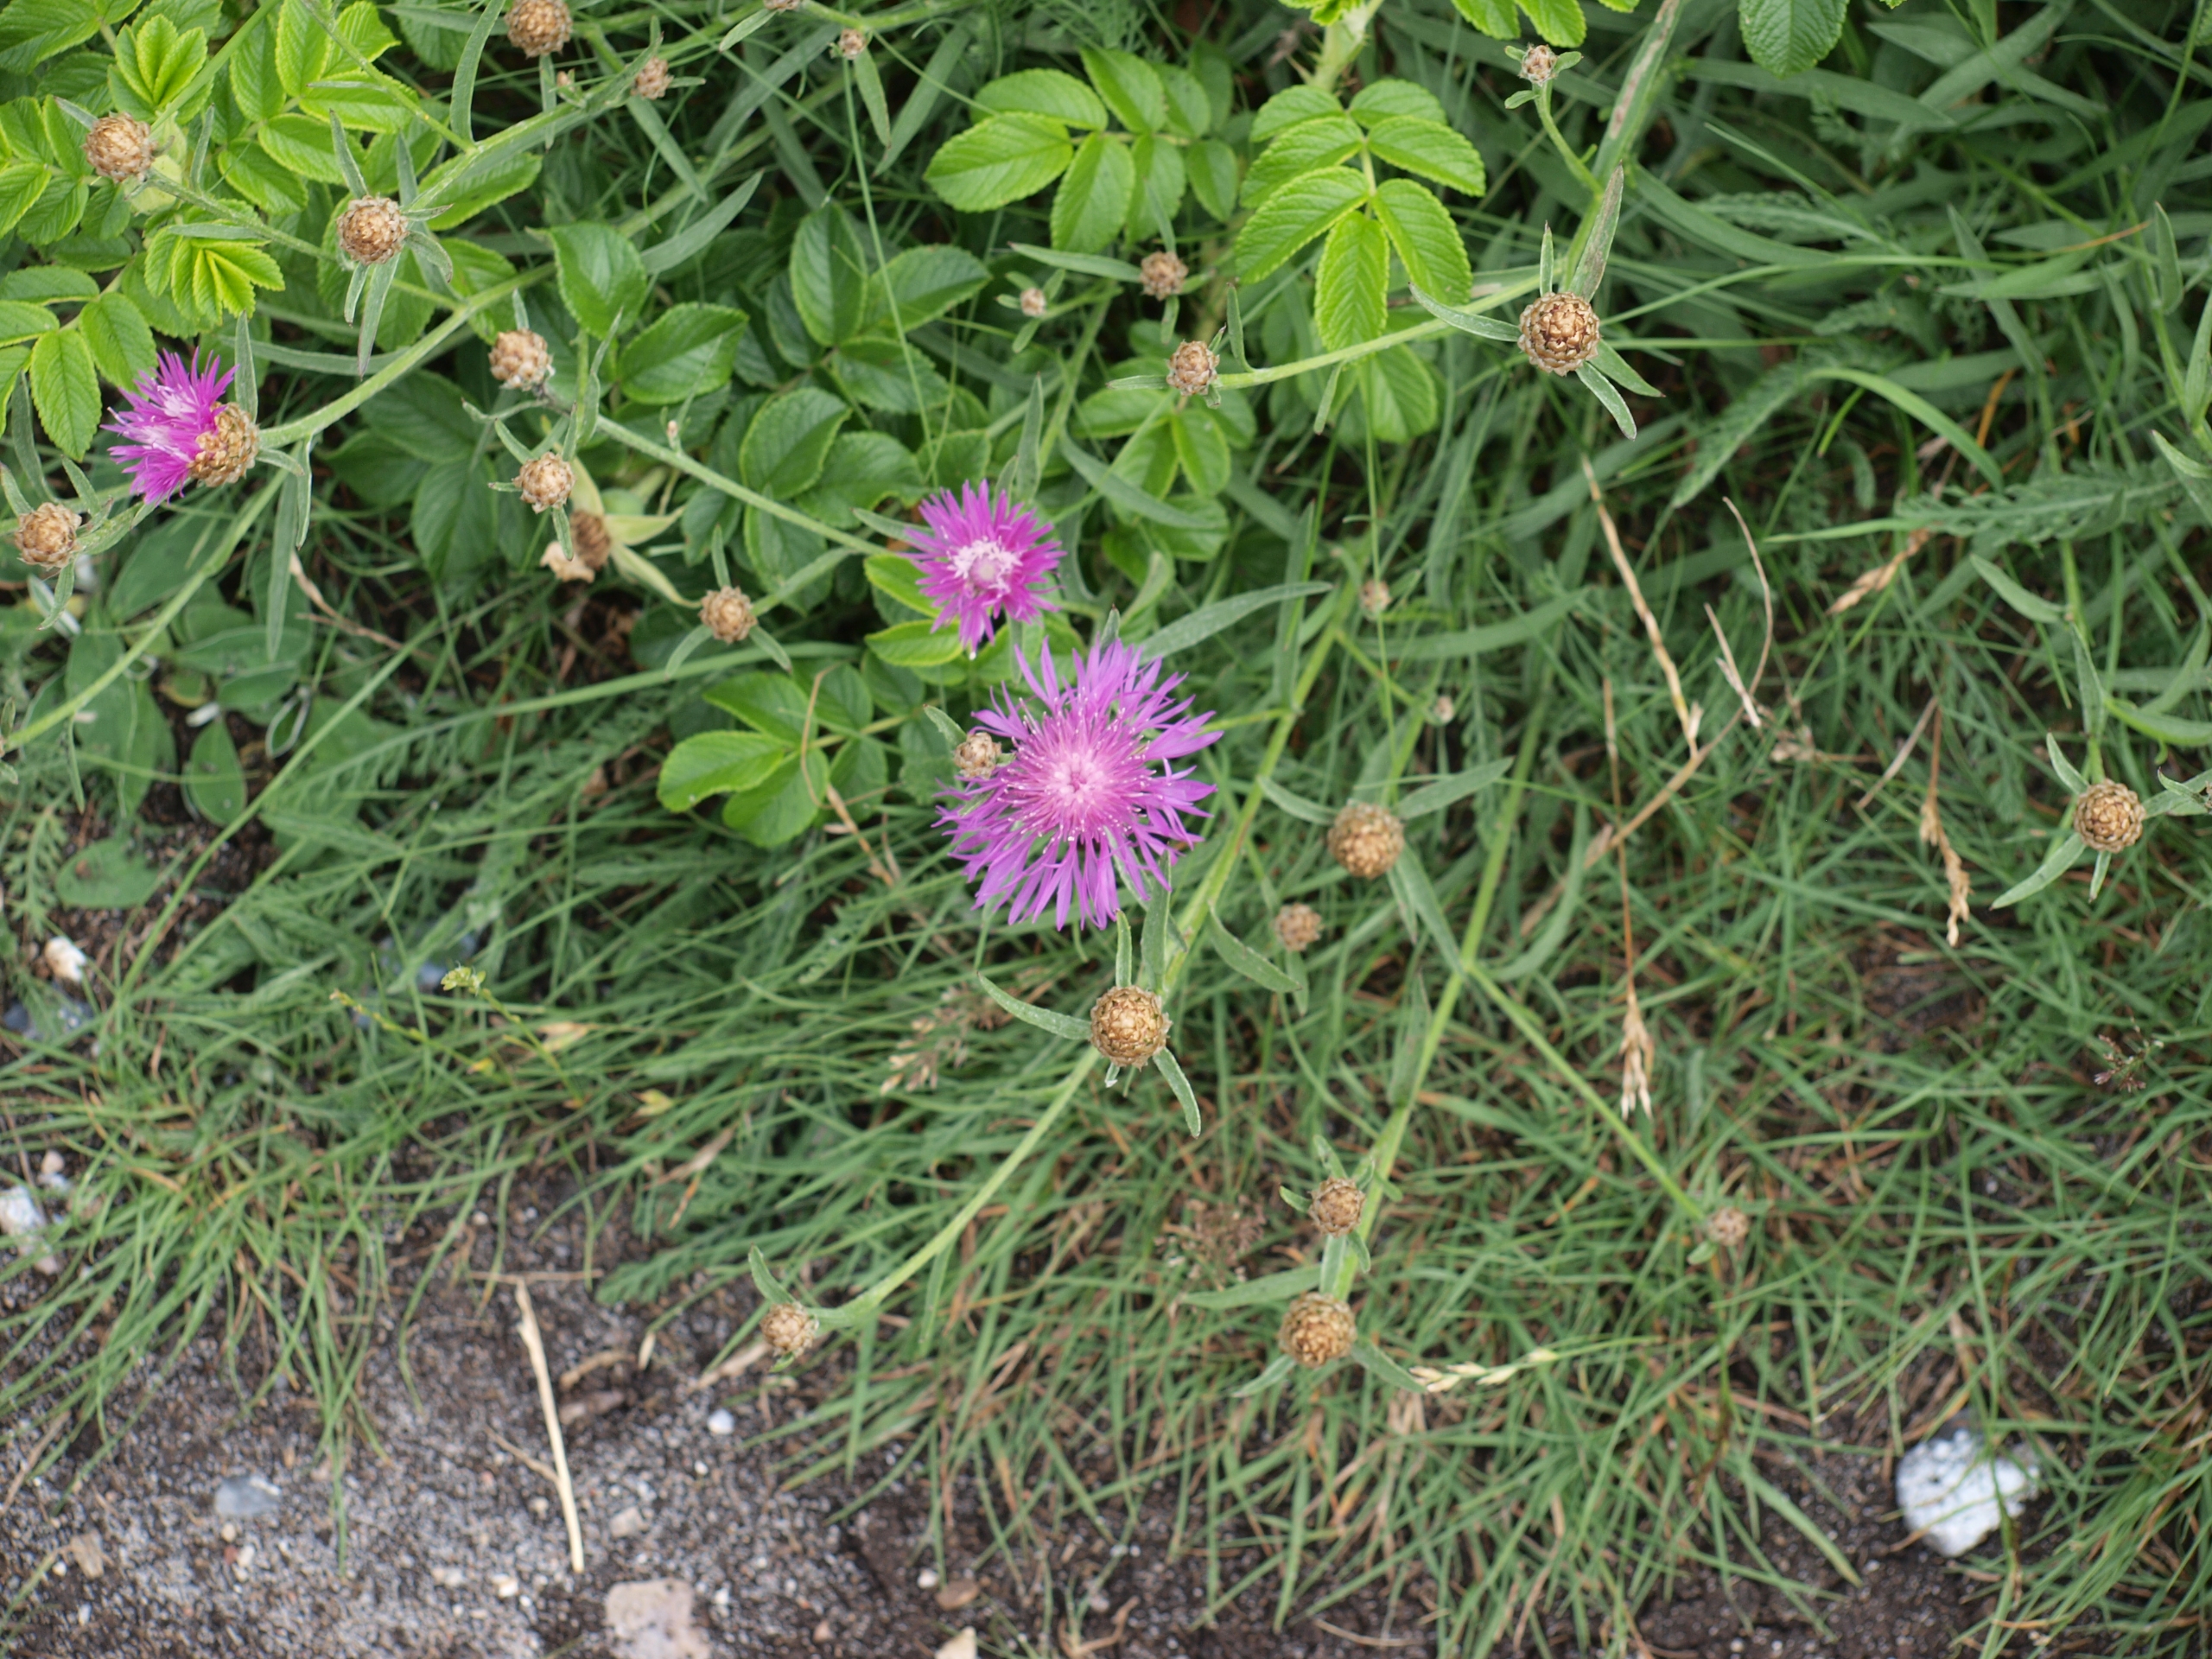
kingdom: Plantae
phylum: Tracheophyta
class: Magnoliopsida
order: Asterales
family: Asteraceae
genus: Centaurea
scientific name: Centaurea jacea
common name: Almindelig knopurt
